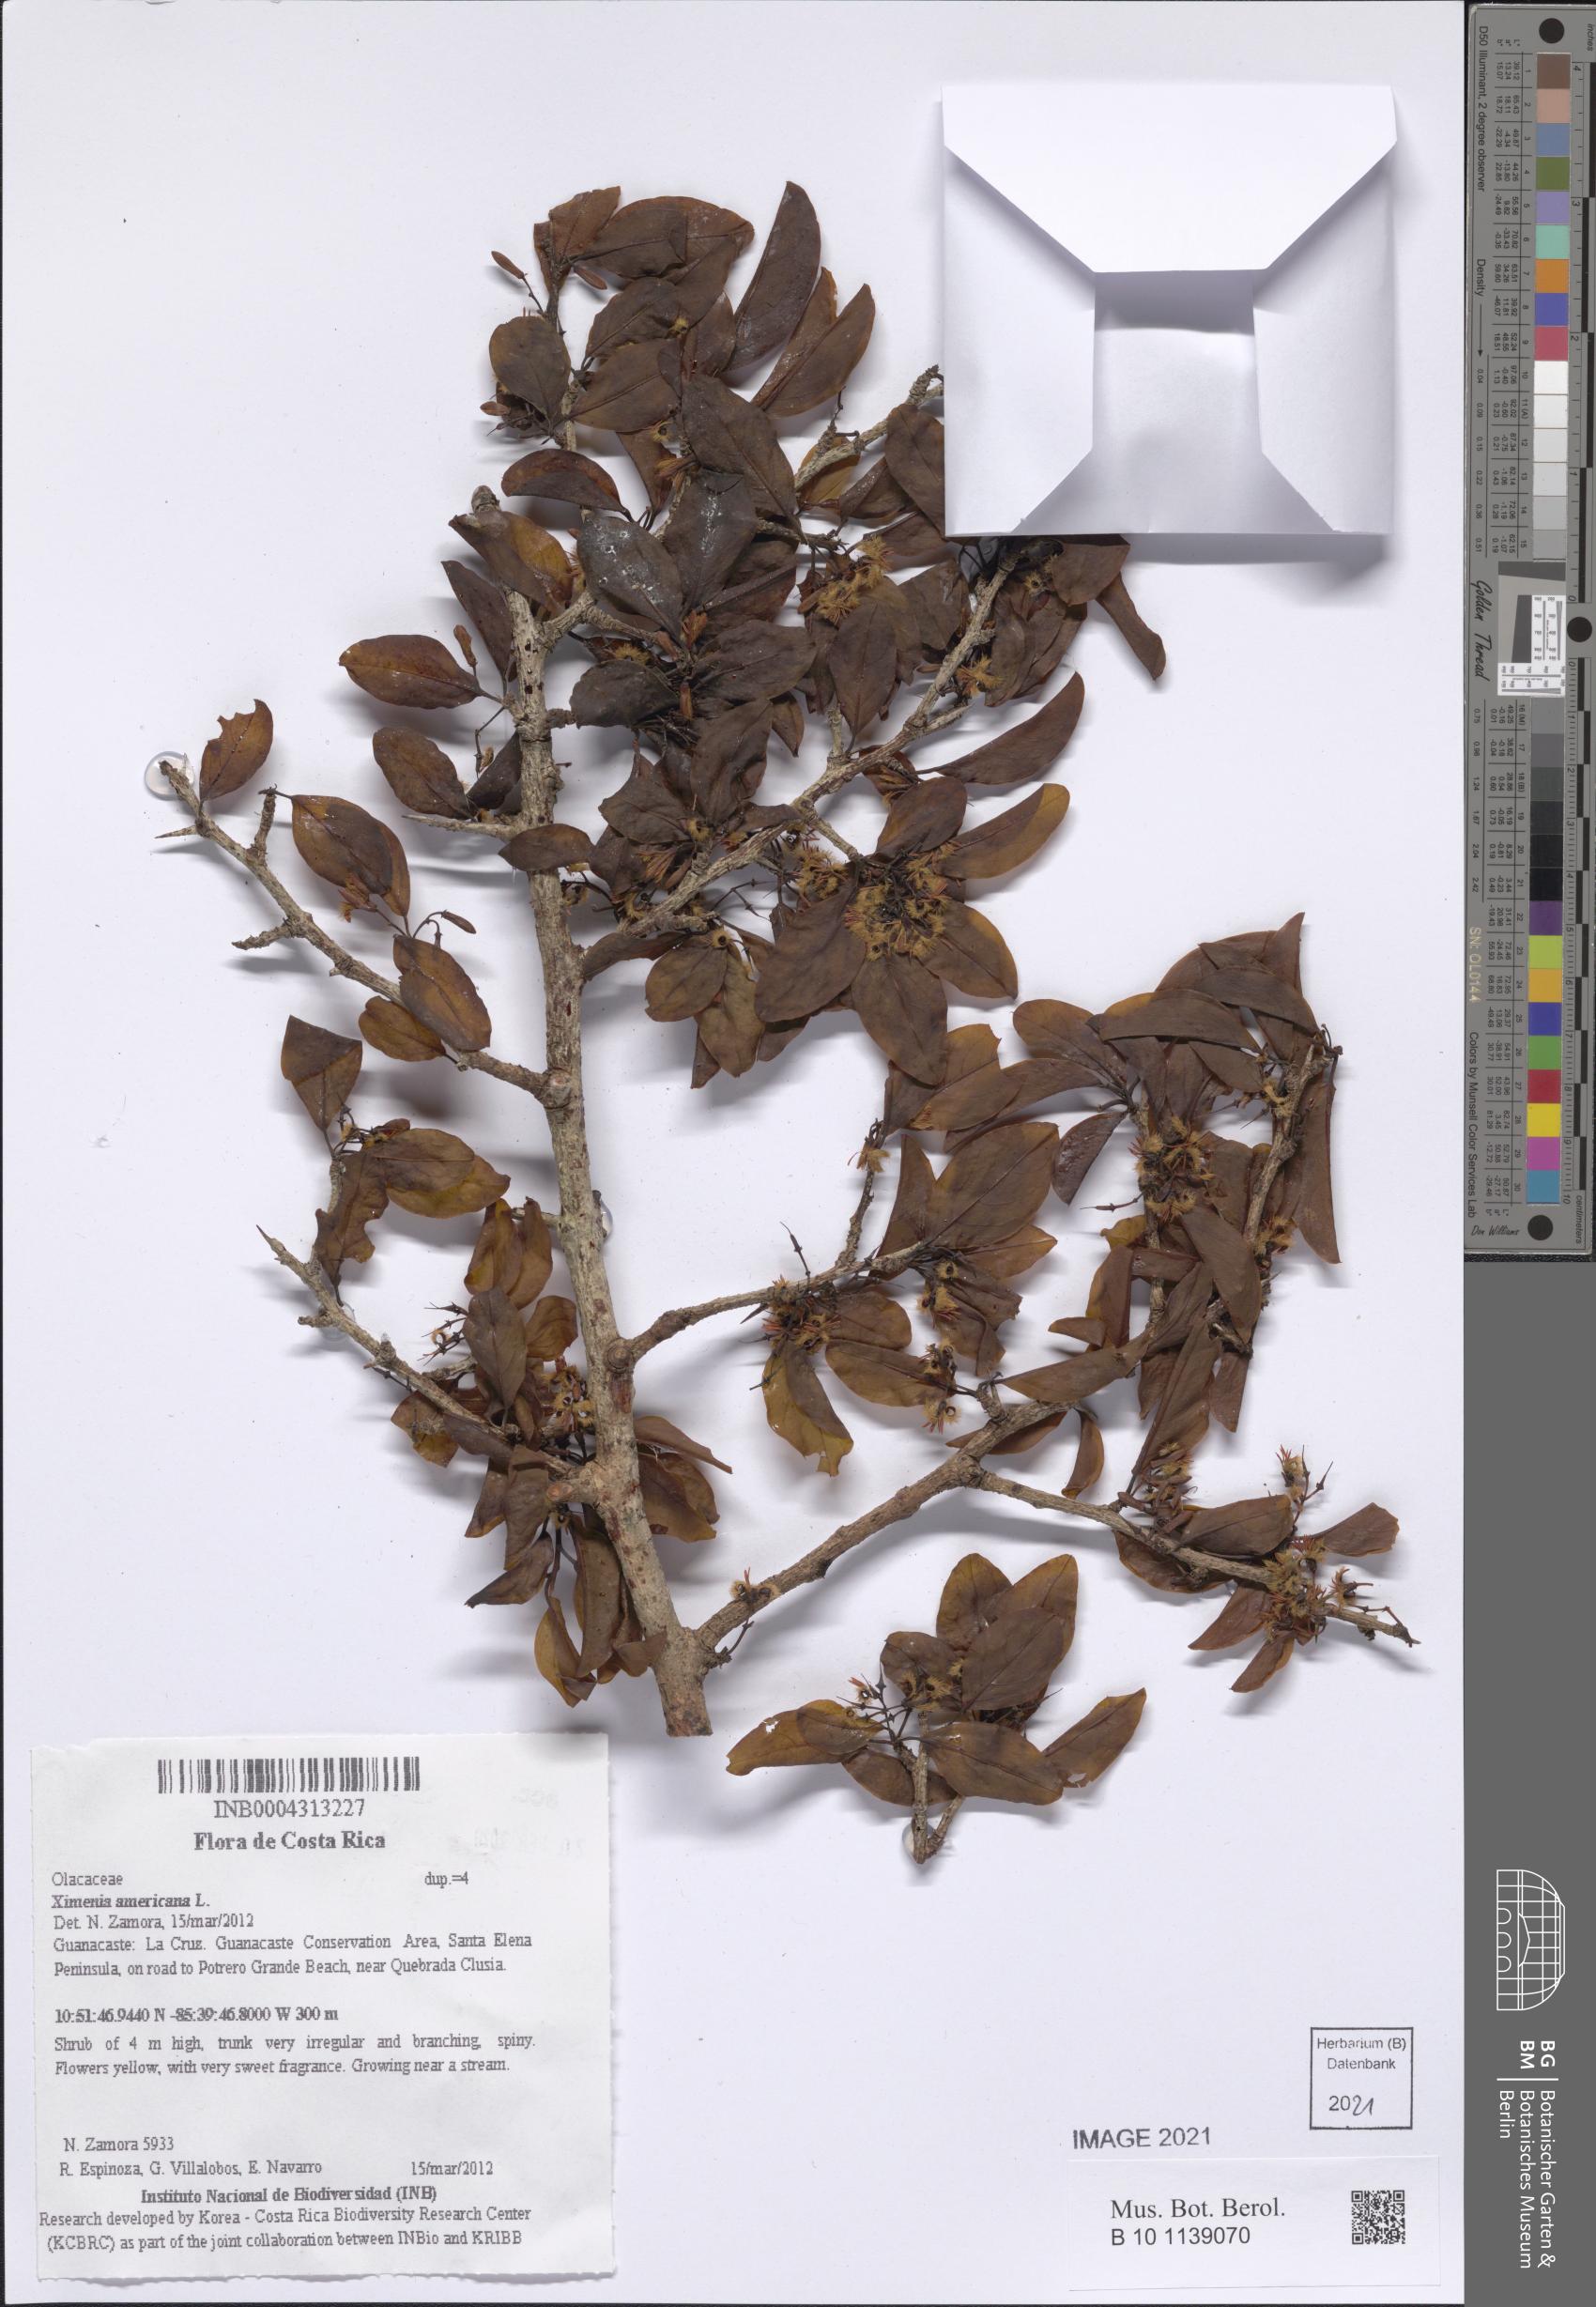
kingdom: Plantae
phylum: Tracheophyta
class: Magnoliopsida
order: Santalales
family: Ximeniaceae
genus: Ximenia
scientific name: Ximenia americana
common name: Tallowwood
